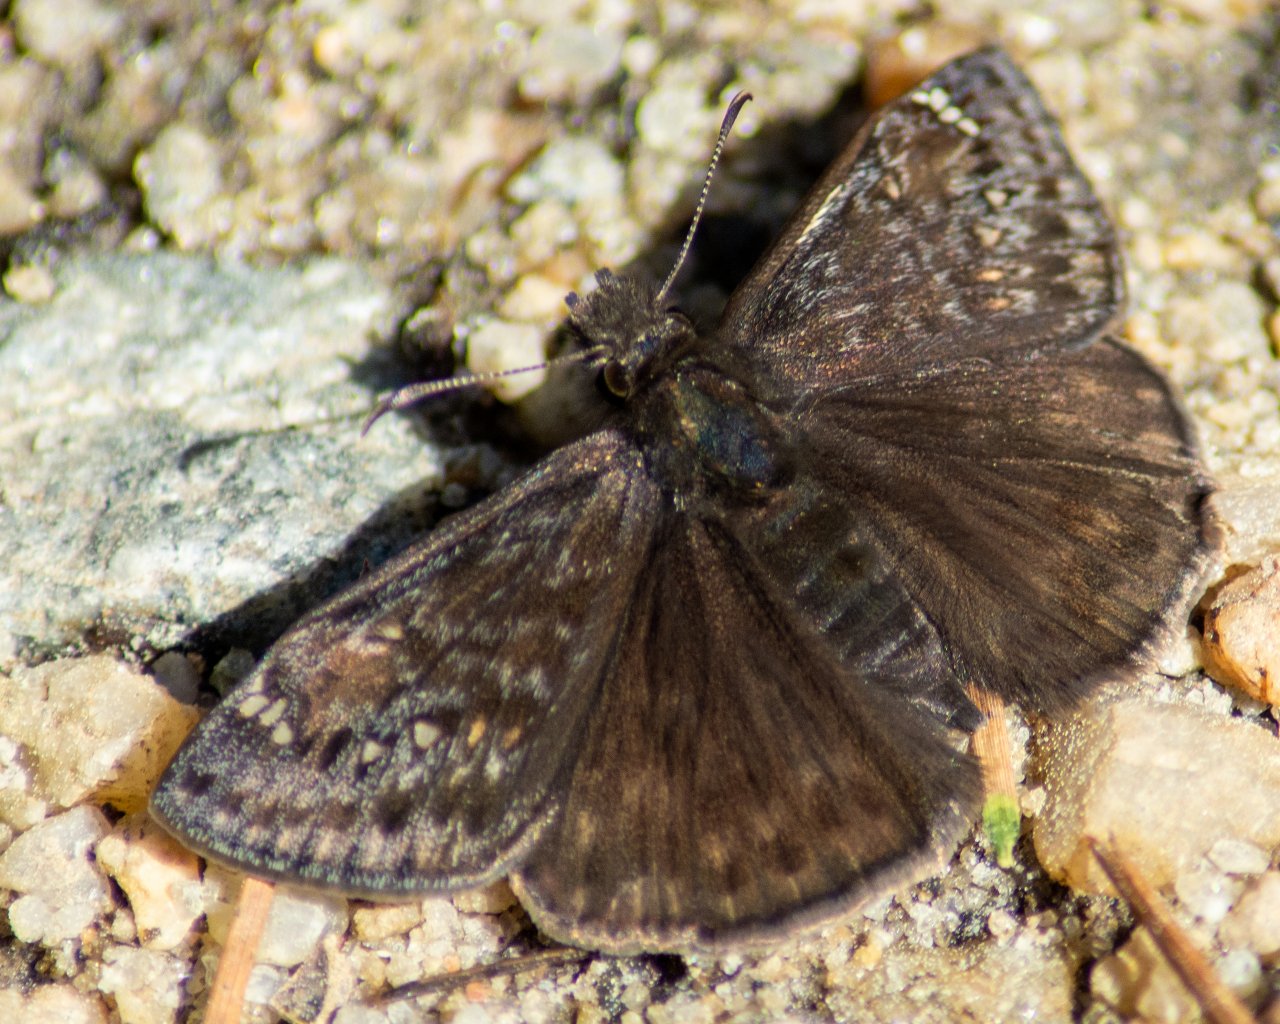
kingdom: Animalia
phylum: Arthropoda
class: Insecta
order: Lepidoptera
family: Hesperiidae
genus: Gesta
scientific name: Gesta
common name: Juvenal's Duskywing
